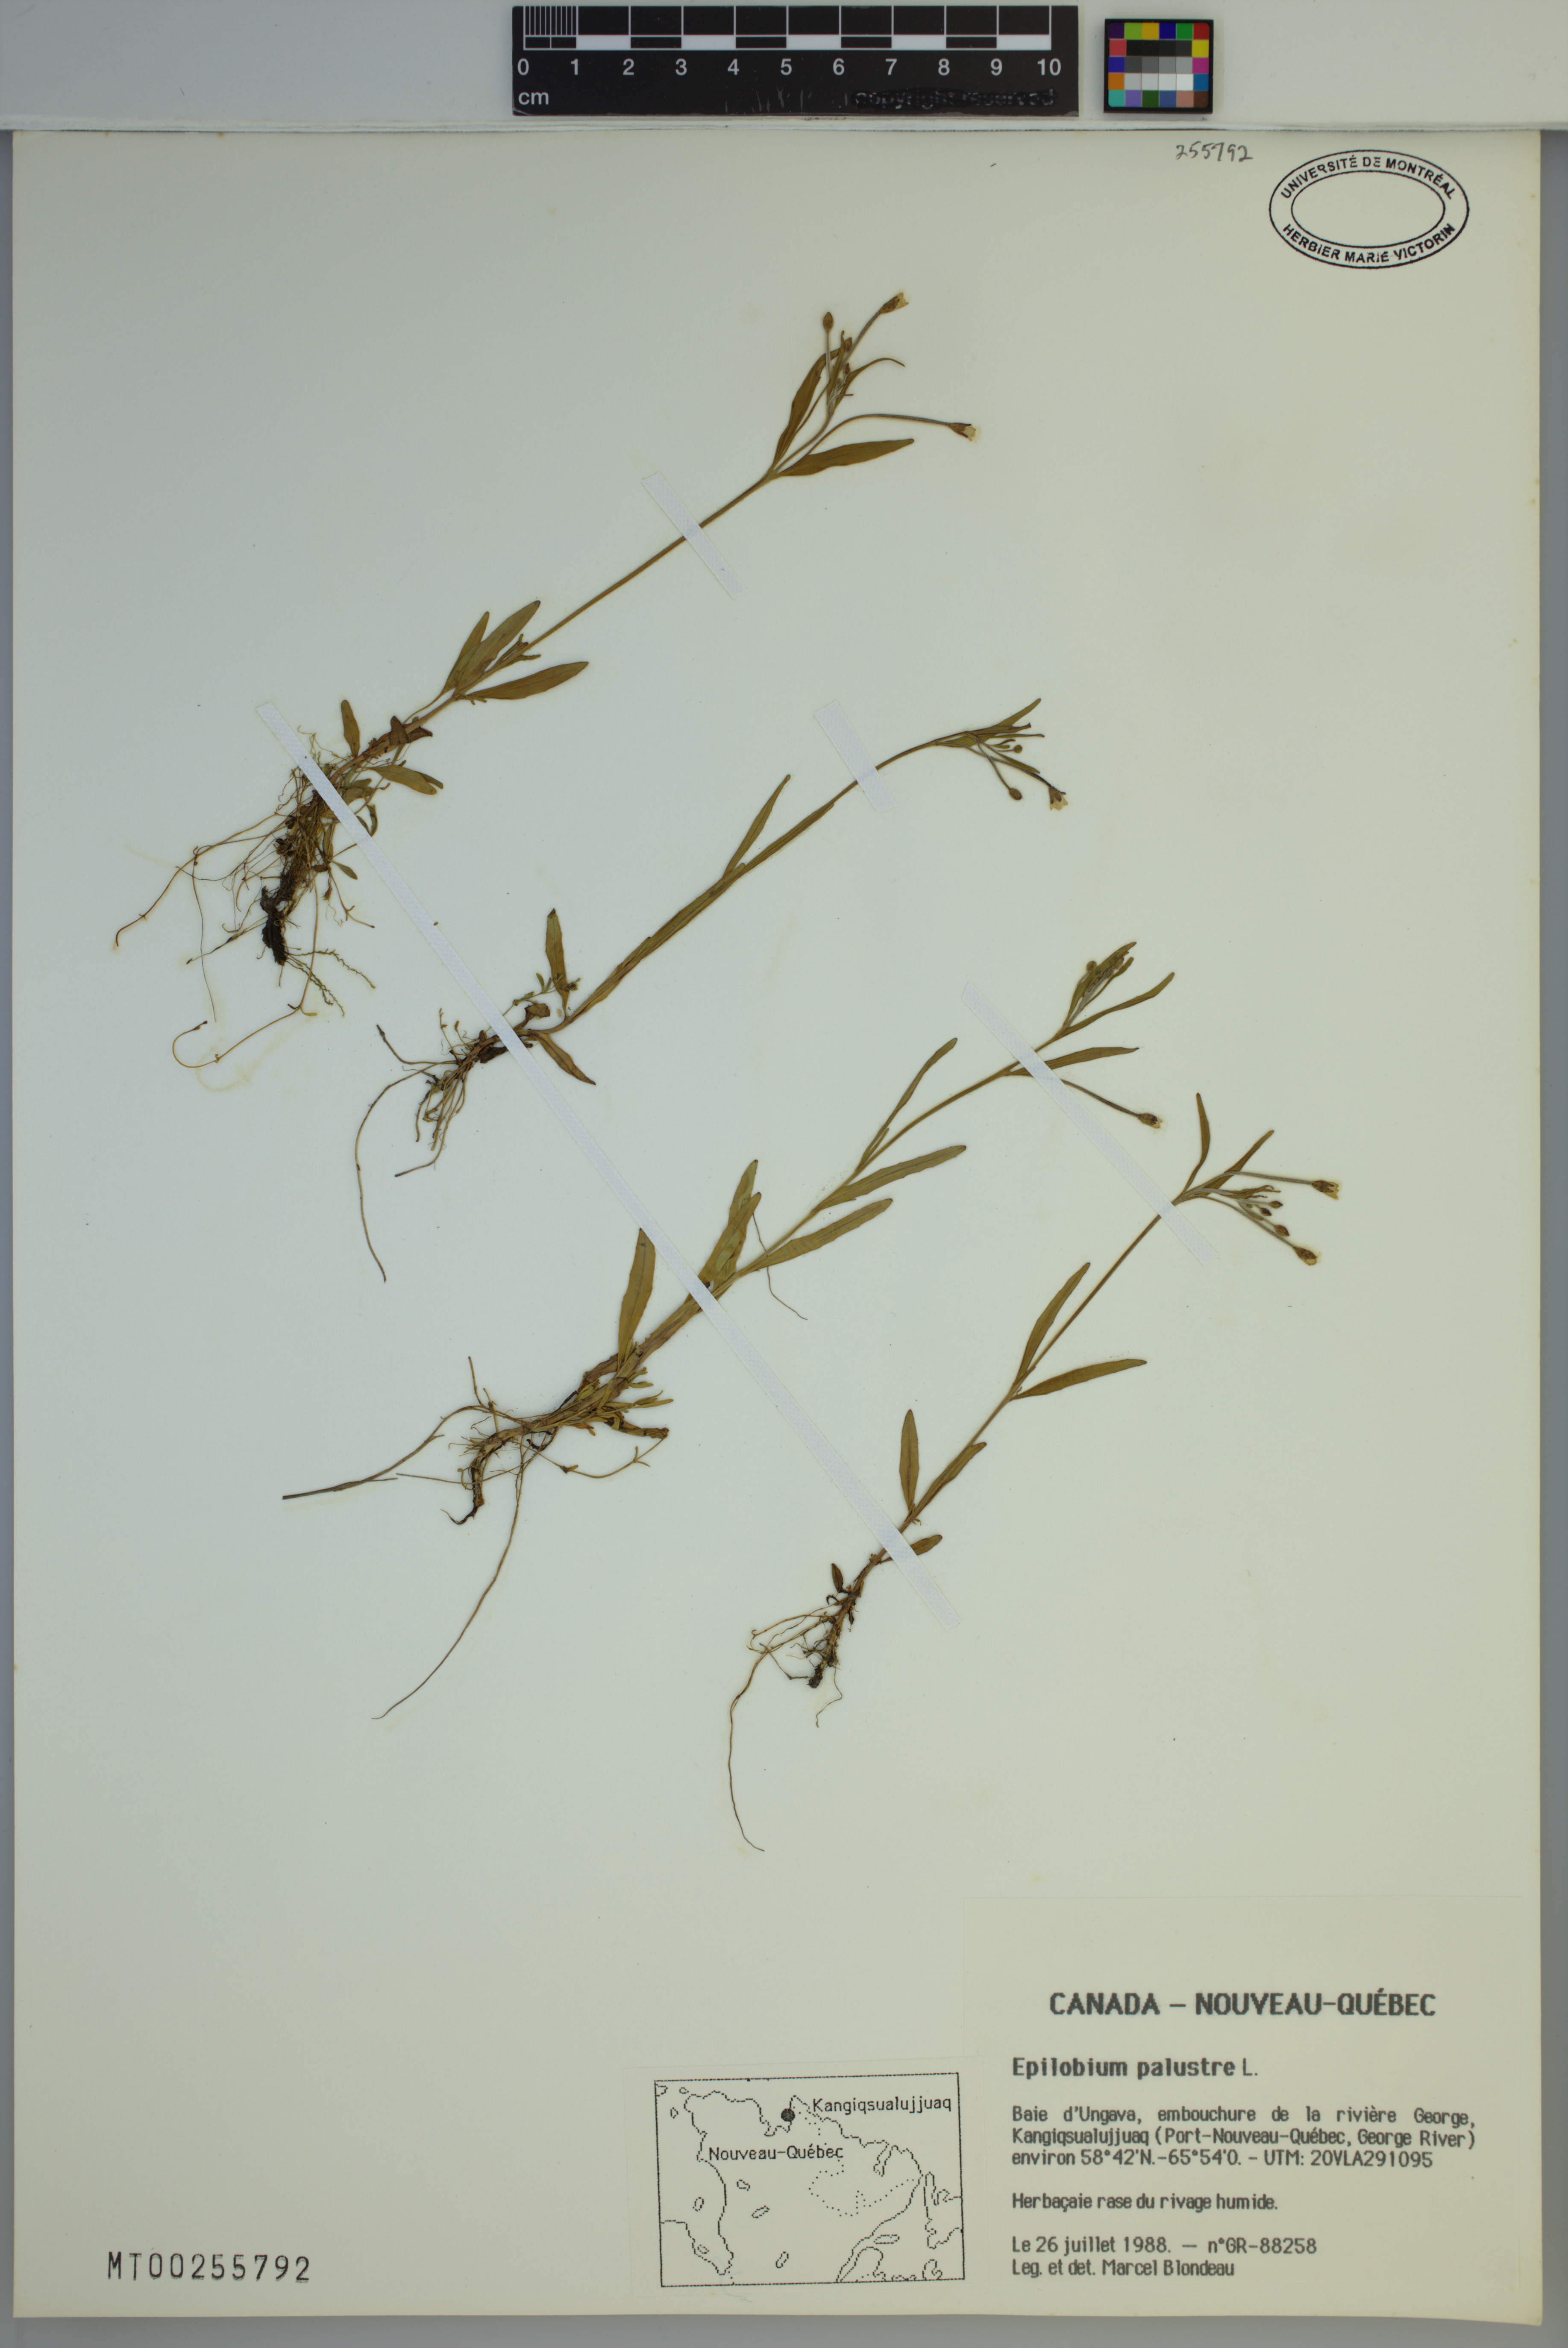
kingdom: Plantae
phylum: Tracheophyta
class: Magnoliopsida
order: Myrtales
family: Onagraceae
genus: Epilobium
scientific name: Epilobium palustre
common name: Marsh willowherb
